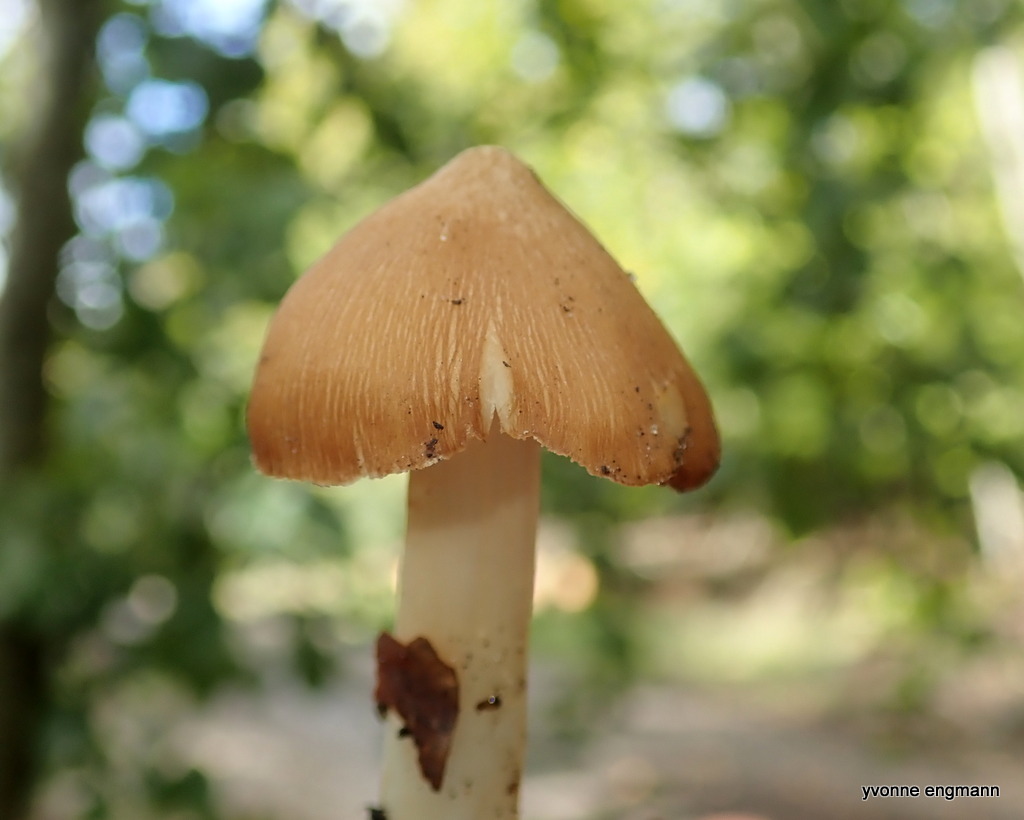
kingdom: Fungi
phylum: Basidiomycota
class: Agaricomycetes
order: Agaricales
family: Inocybaceae
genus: Inosperma
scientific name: Inosperma fulvum
